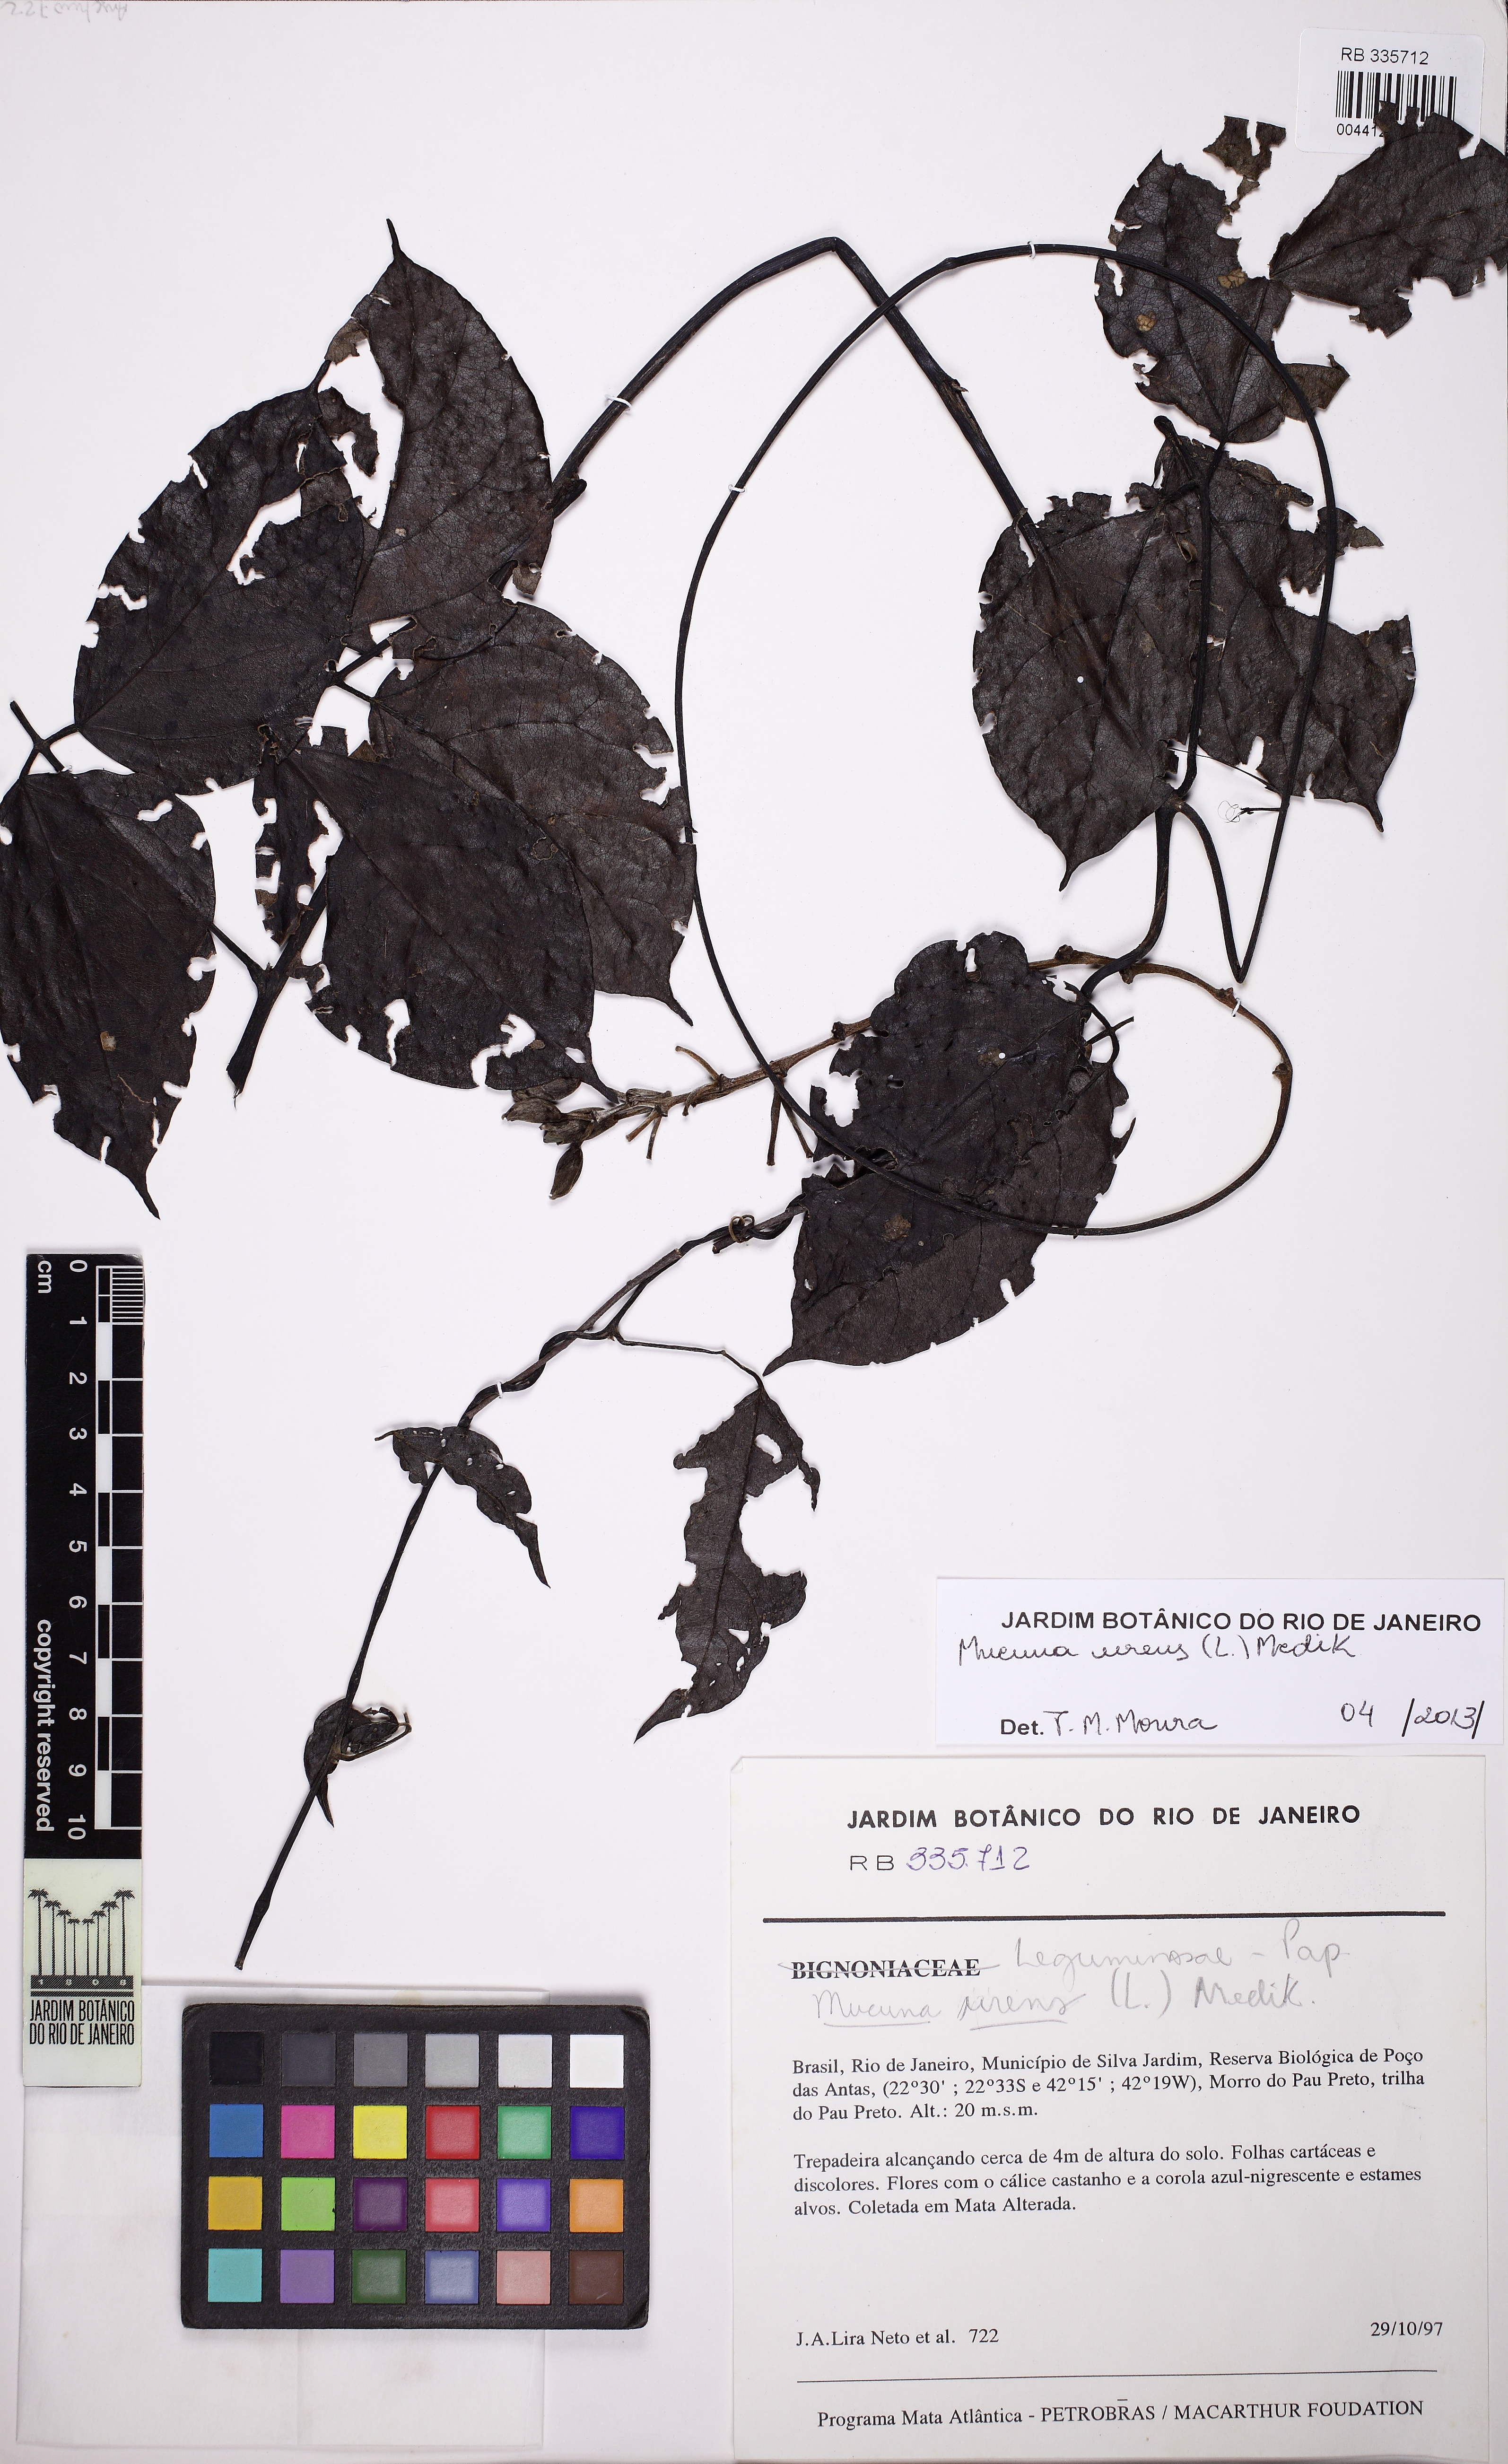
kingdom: Plantae
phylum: Tracheophyta
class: Magnoliopsida
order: Fabales
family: Fabaceae
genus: Mucuna
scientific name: Mucuna urens
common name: Red hamburger bean
